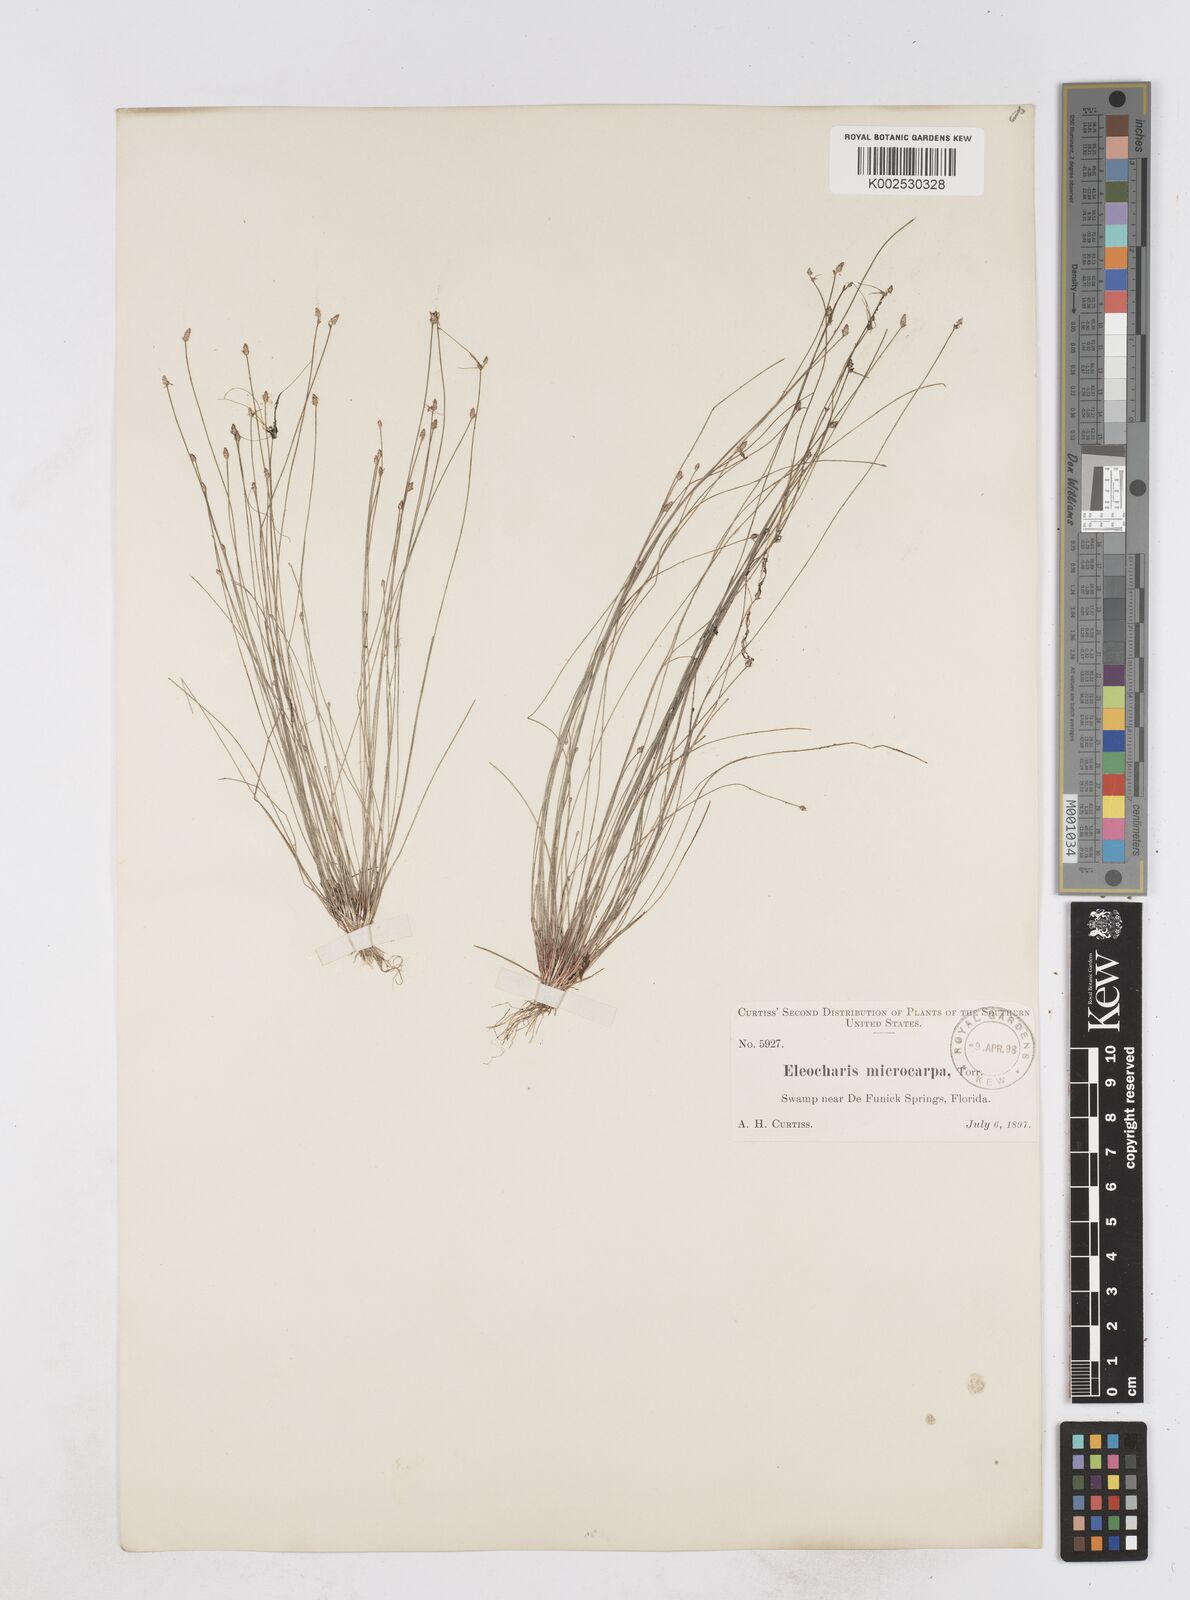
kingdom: Plantae
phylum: Tracheophyta
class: Liliopsida
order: Poales
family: Cyperaceae
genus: Eleocharis
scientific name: Eleocharis microcarpa
